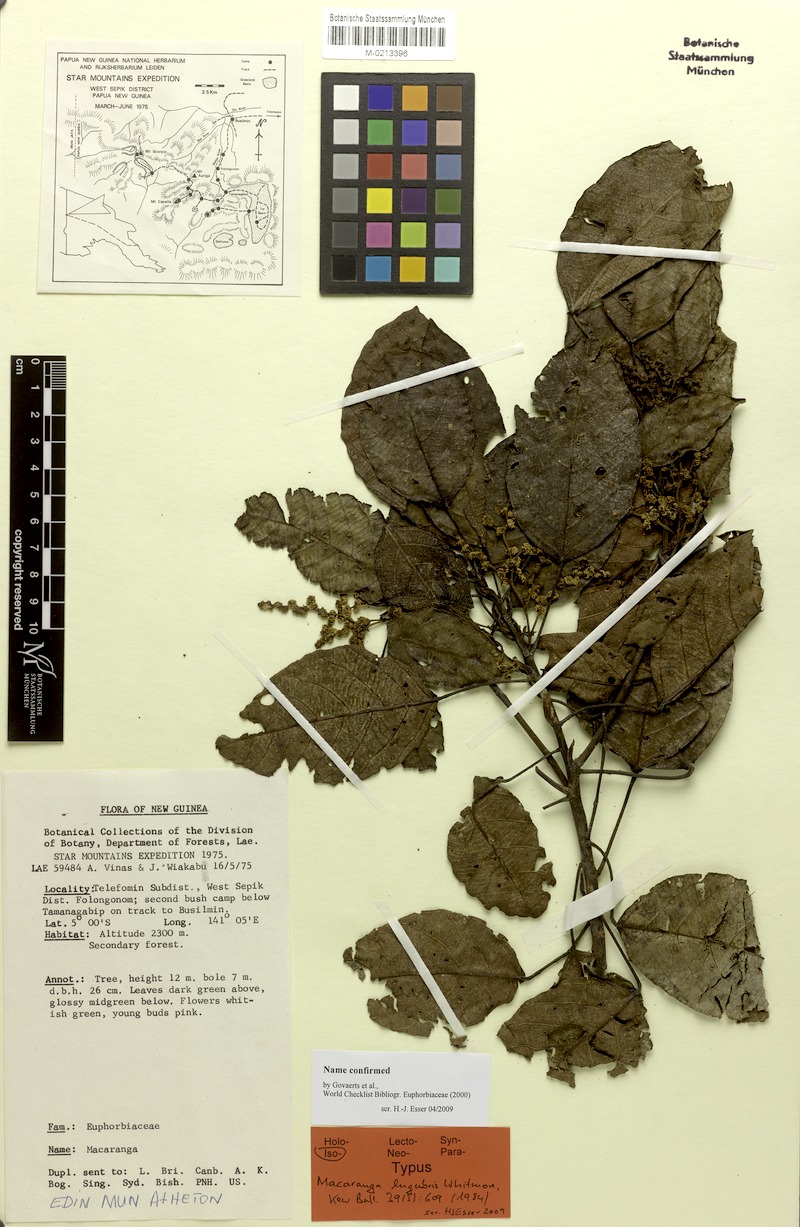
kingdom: Plantae
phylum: Tracheophyta
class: Magnoliopsida
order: Malpighiales
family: Euphorbiaceae
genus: Macaranga
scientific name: Macaranga lugubris
